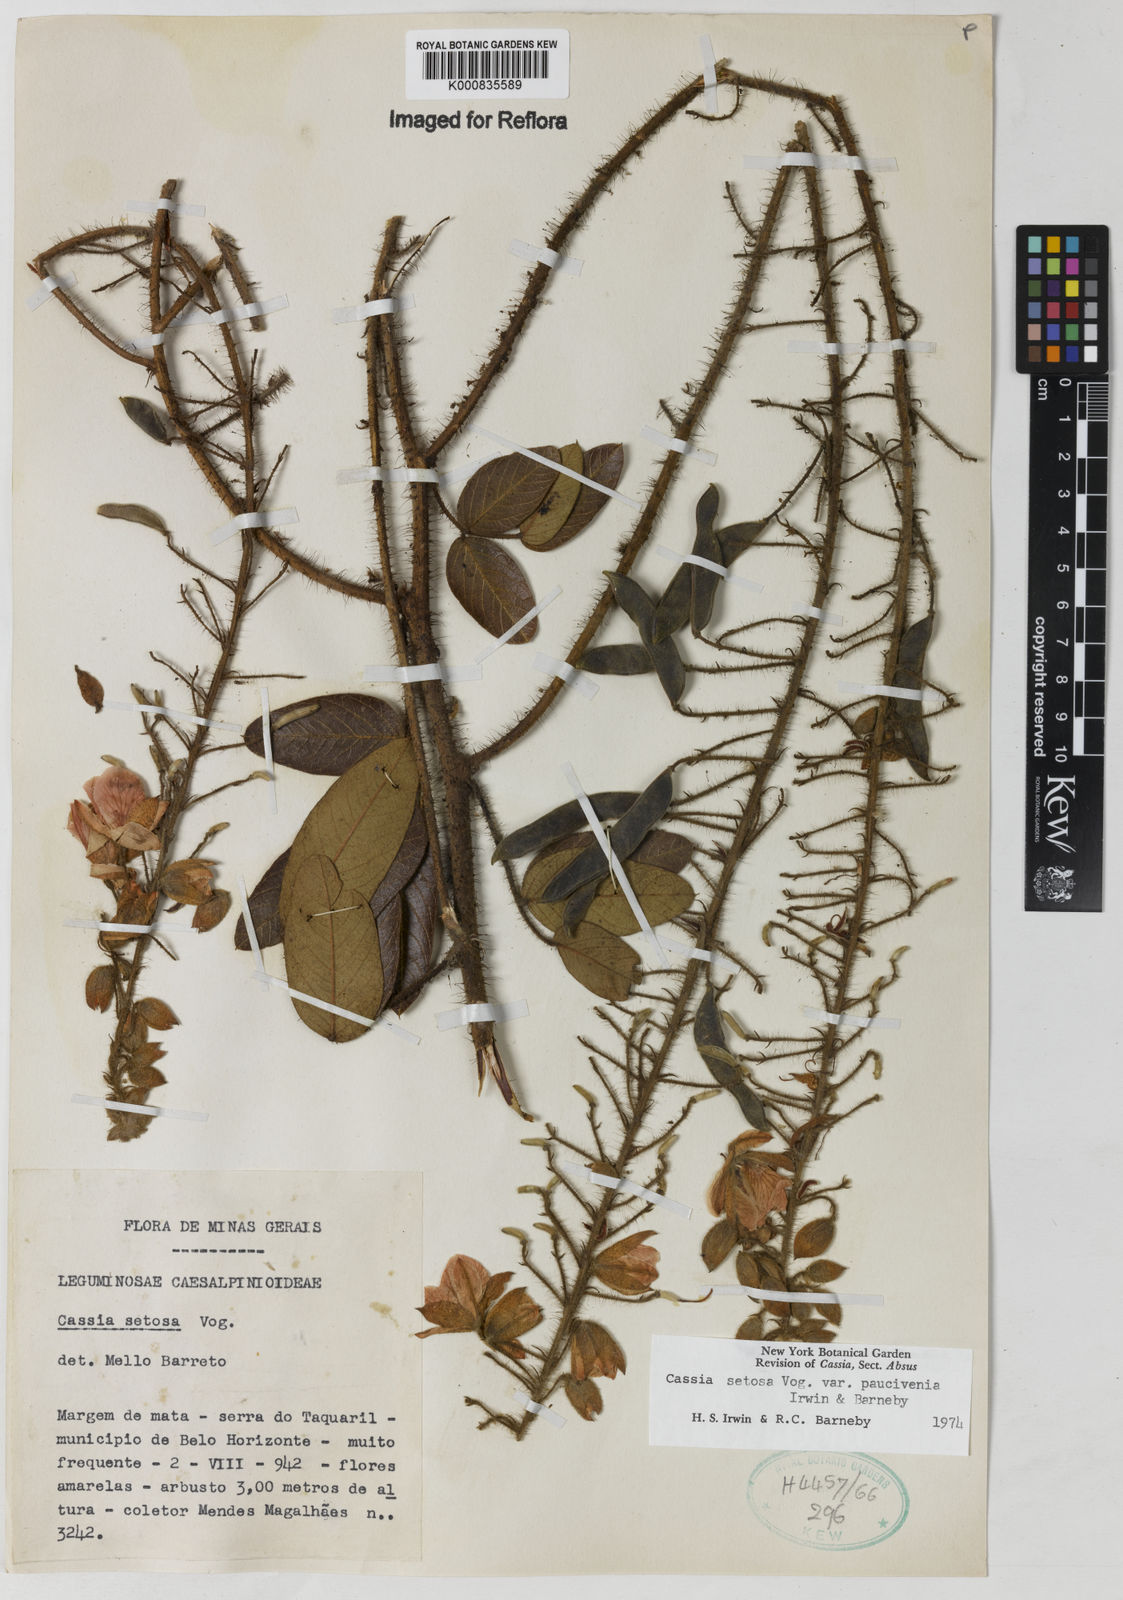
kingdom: Plantae
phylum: Tracheophyta
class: Magnoliopsida
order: Fabales
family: Fabaceae
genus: Chamaecrista
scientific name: Chamaecrista setosa
